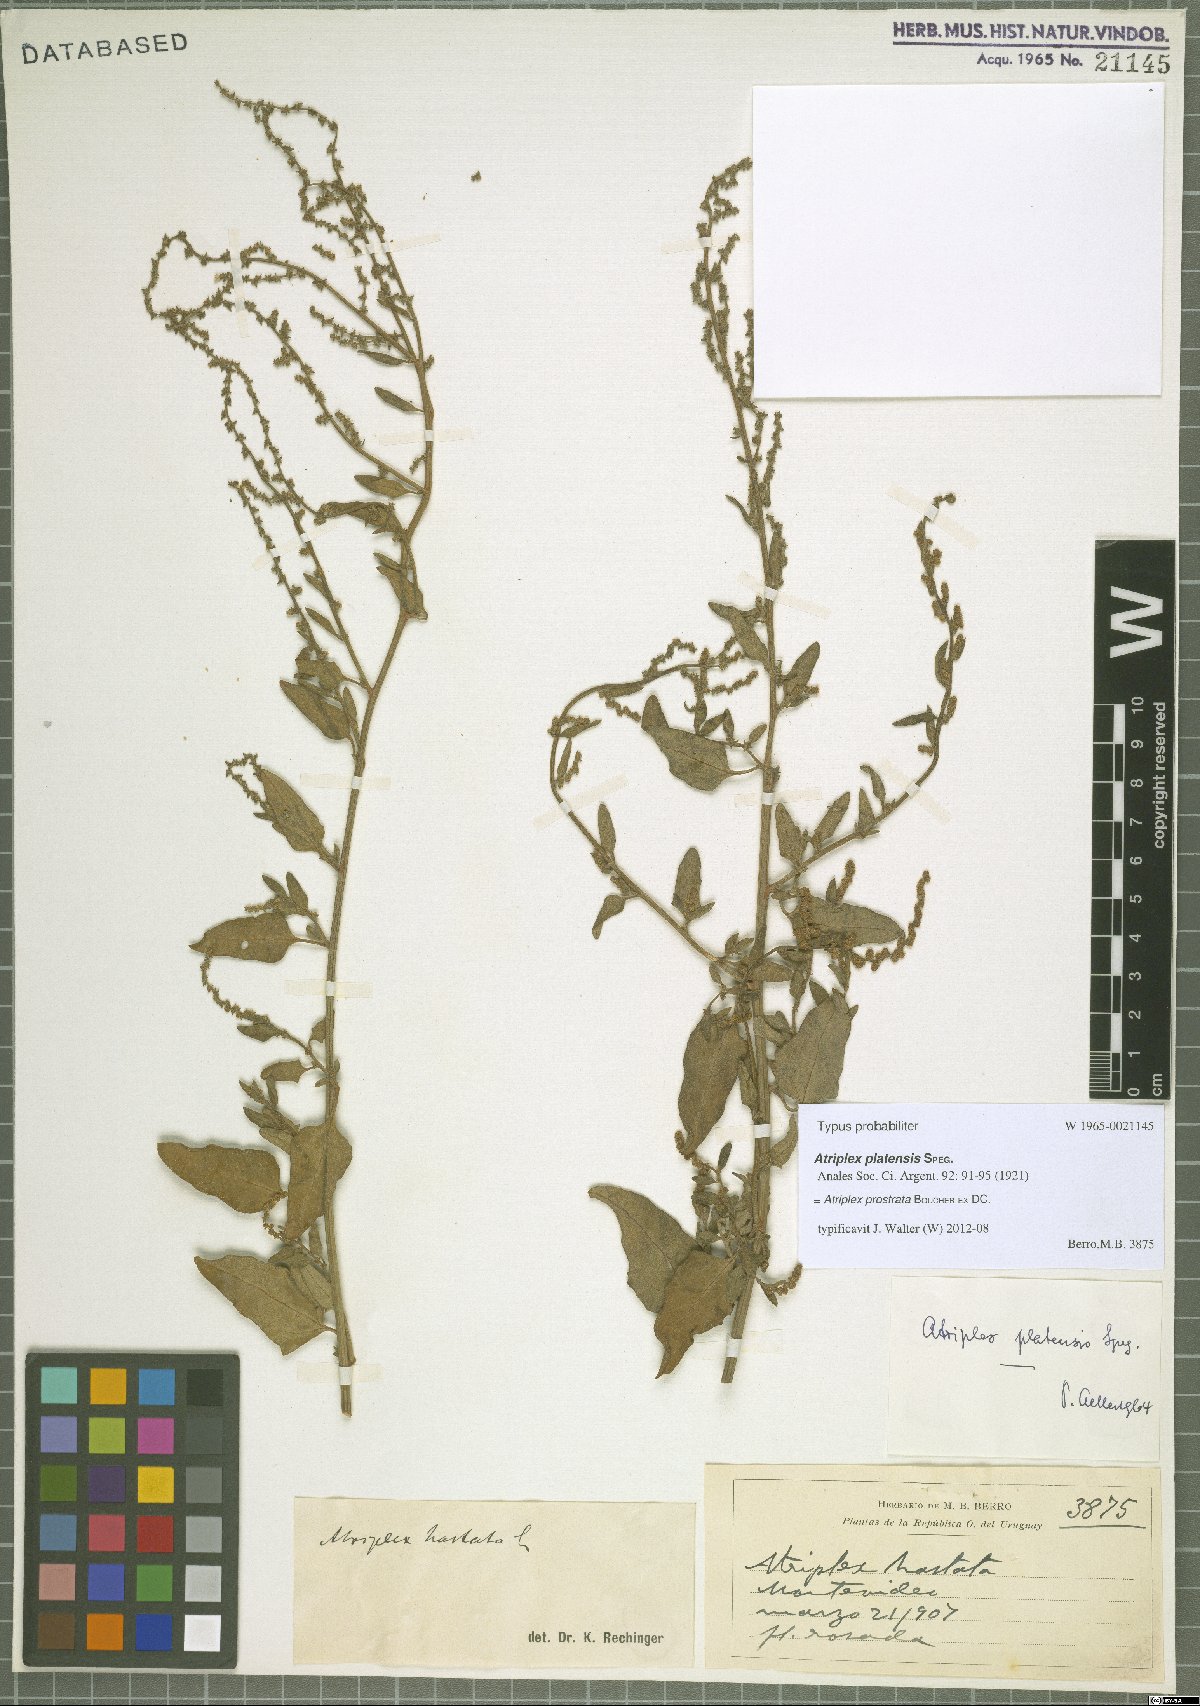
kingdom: Plantae
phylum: Tracheophyta
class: Magnoliopsida
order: Caryophyllales
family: Amaranthaceae
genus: Atriplex
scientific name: Atriplex prostrata
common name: Spear-leaved orache
